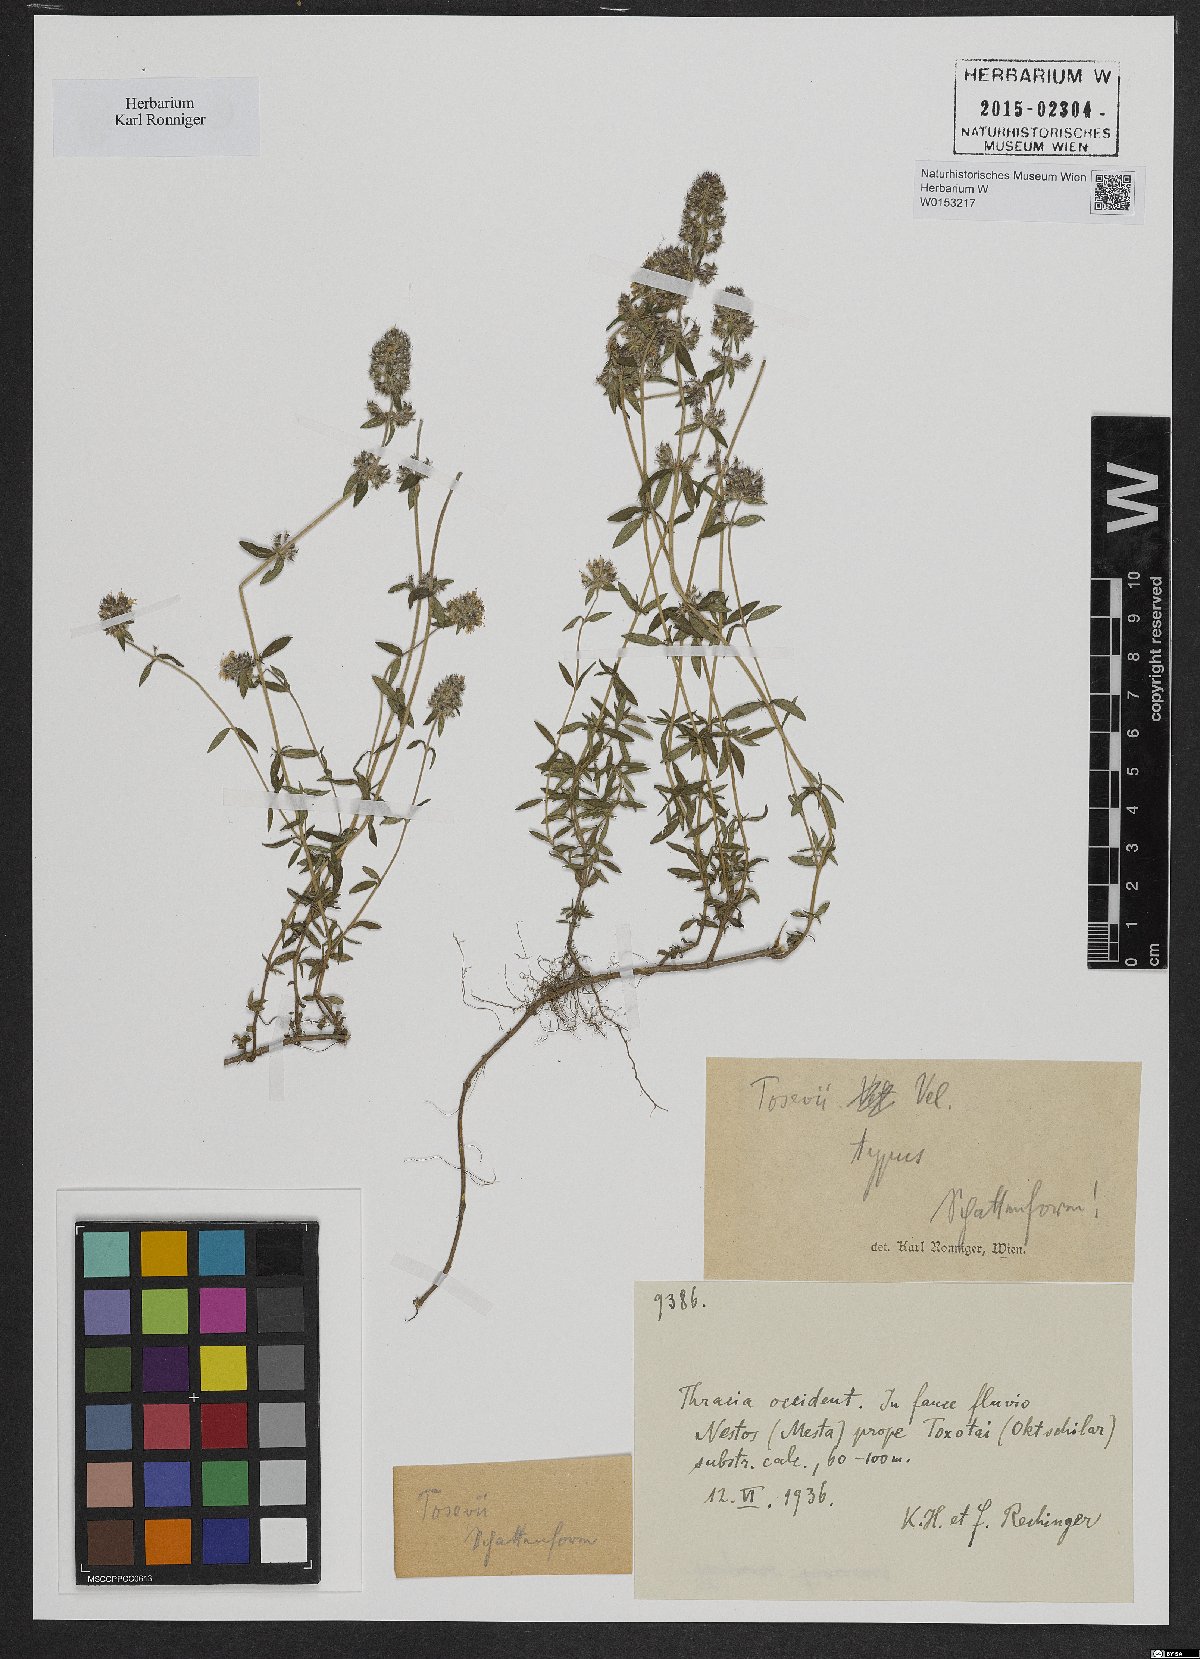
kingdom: Plantae
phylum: Tracheophyta
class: Magnoliopsida
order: Lamiales
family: Lamiaceae
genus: Thymus
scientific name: Thymus sibthorpii
